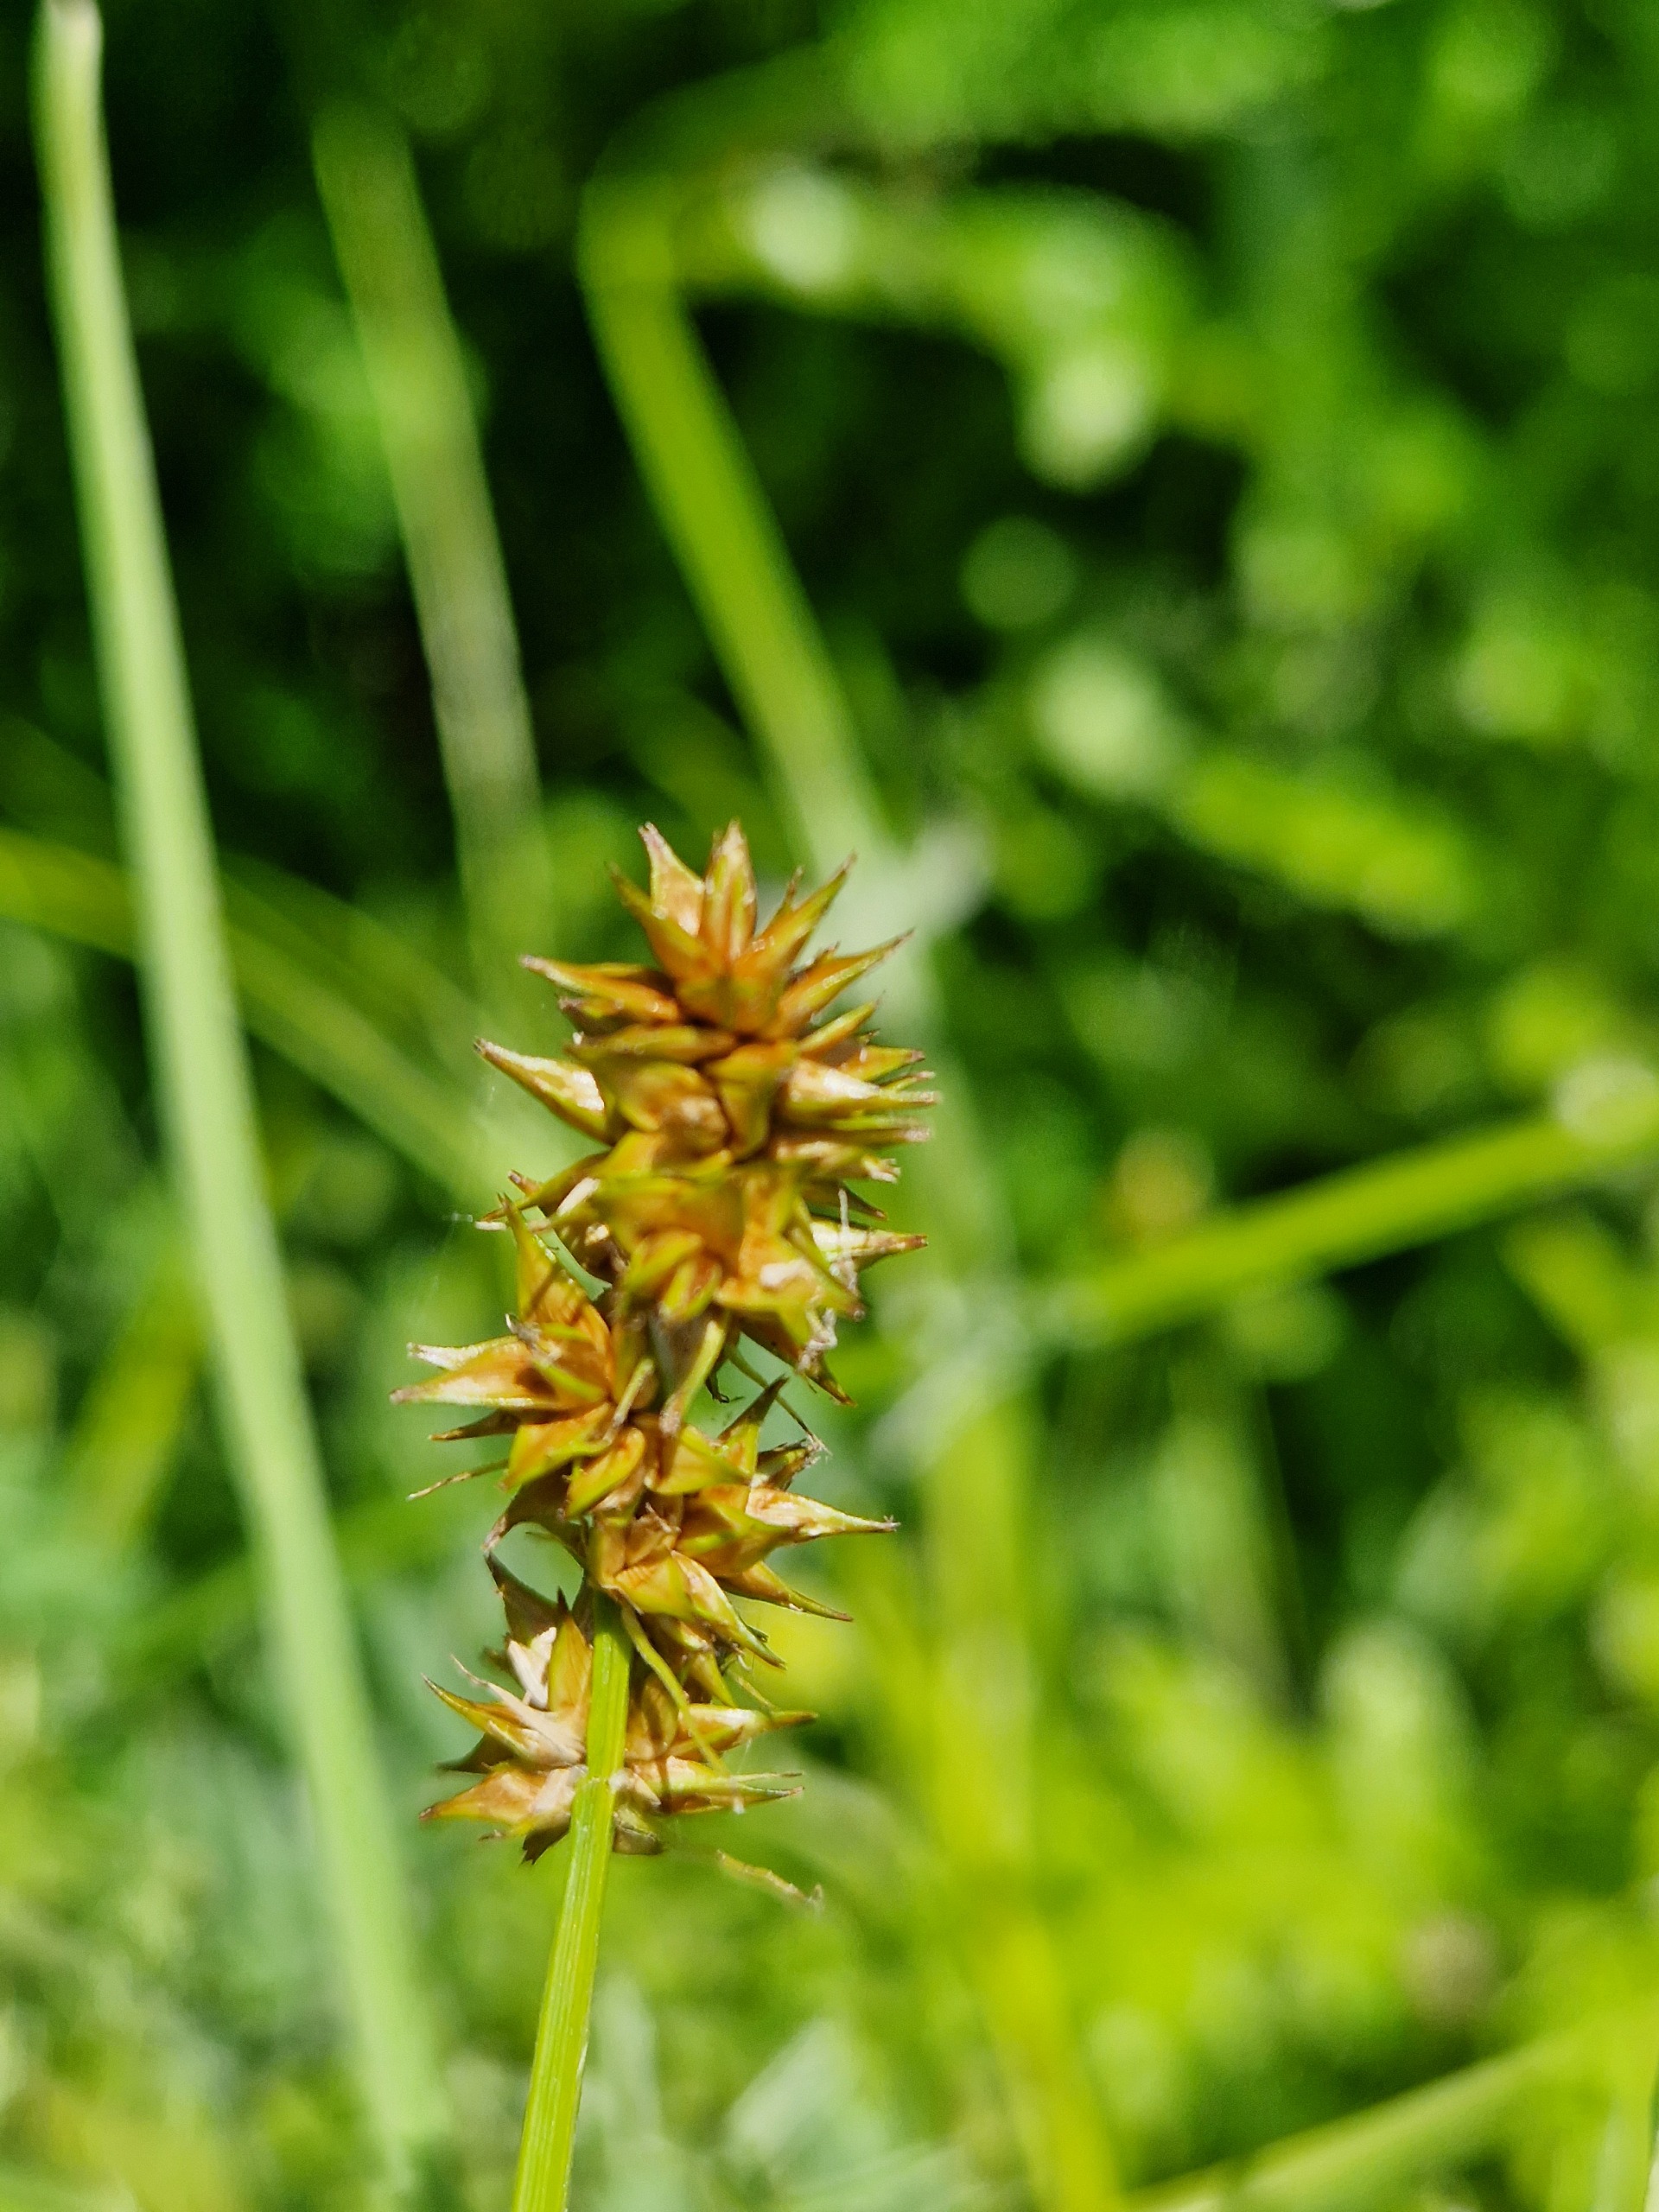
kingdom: Plantae
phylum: Tracheophyta
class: Liliopsida
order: Poales
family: Cyperaceae
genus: Carex
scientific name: Carex otrubae
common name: Sylt-star
